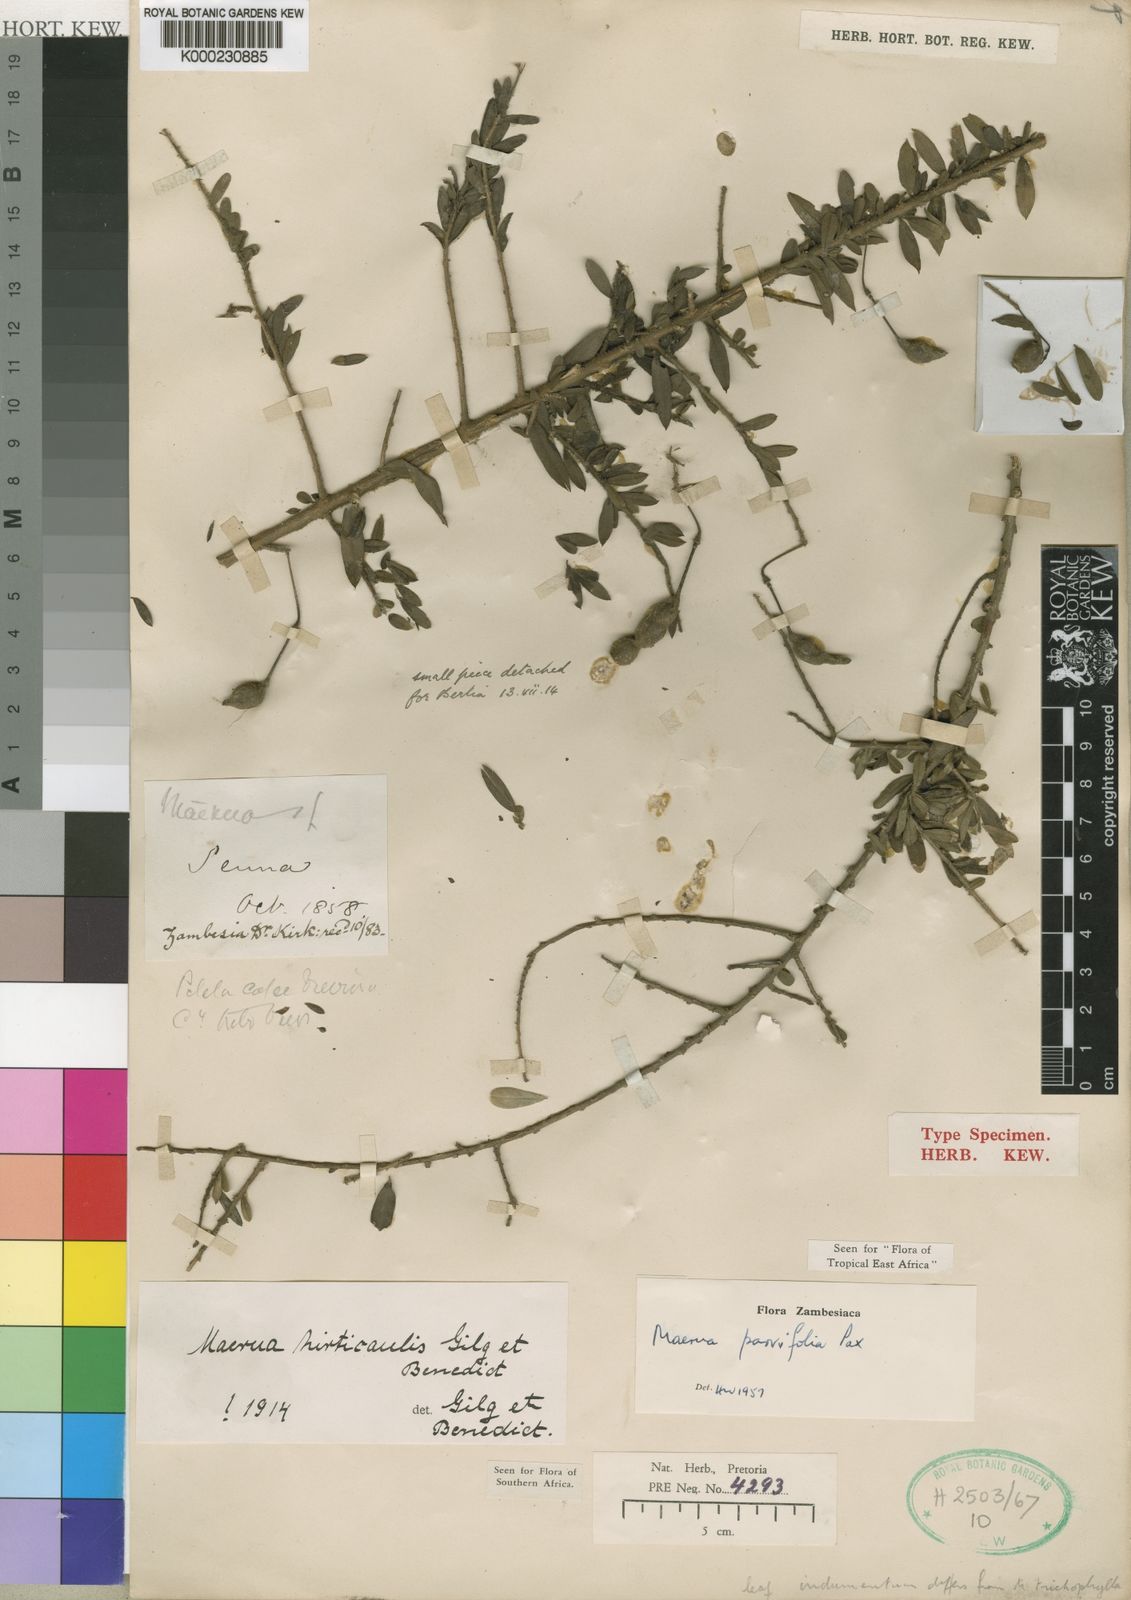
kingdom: Plantae
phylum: Tracheophyta
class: Magnoliopsida
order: Brassicales
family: Capparaceae
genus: Maerua
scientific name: Maerua parvifolia
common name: Dwarf bush-cherry
